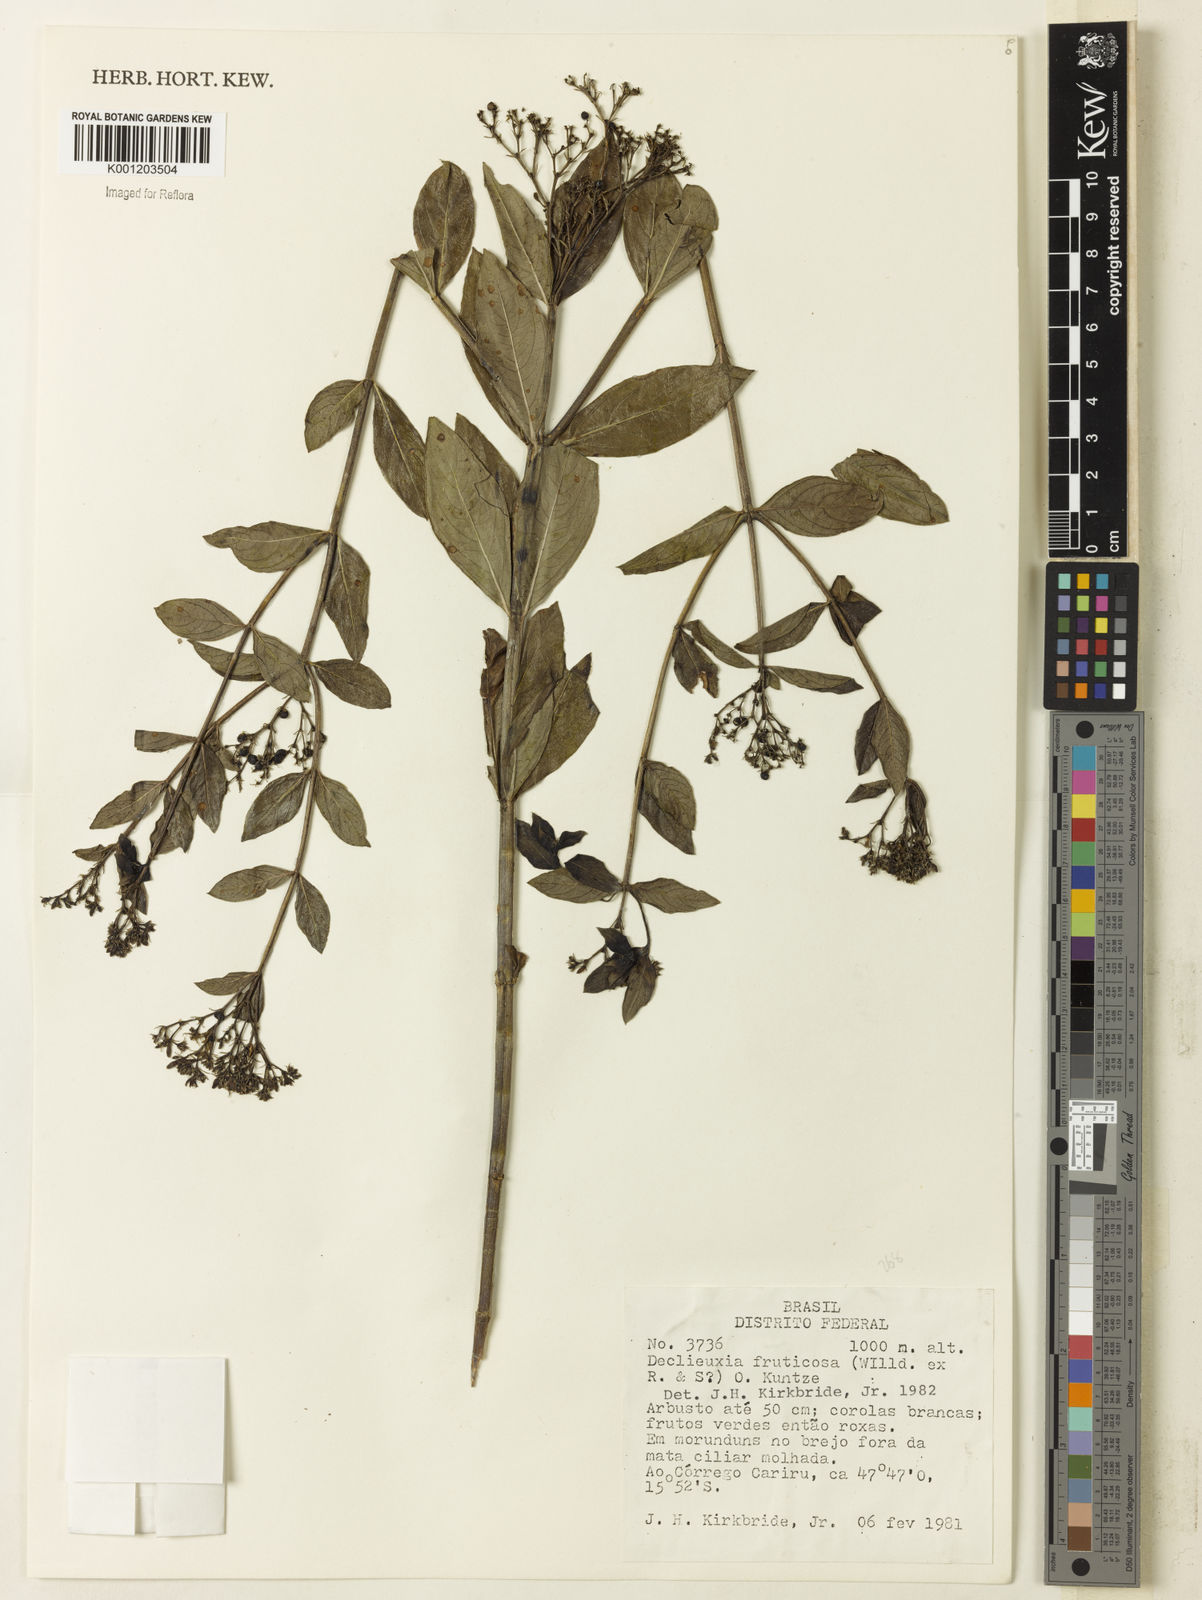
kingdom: Plantae
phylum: Tracheophyta
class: Magnoliopsida
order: Gentianales
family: Rubiaceae
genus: Declieuxia
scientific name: Declieuxia fruticosa
